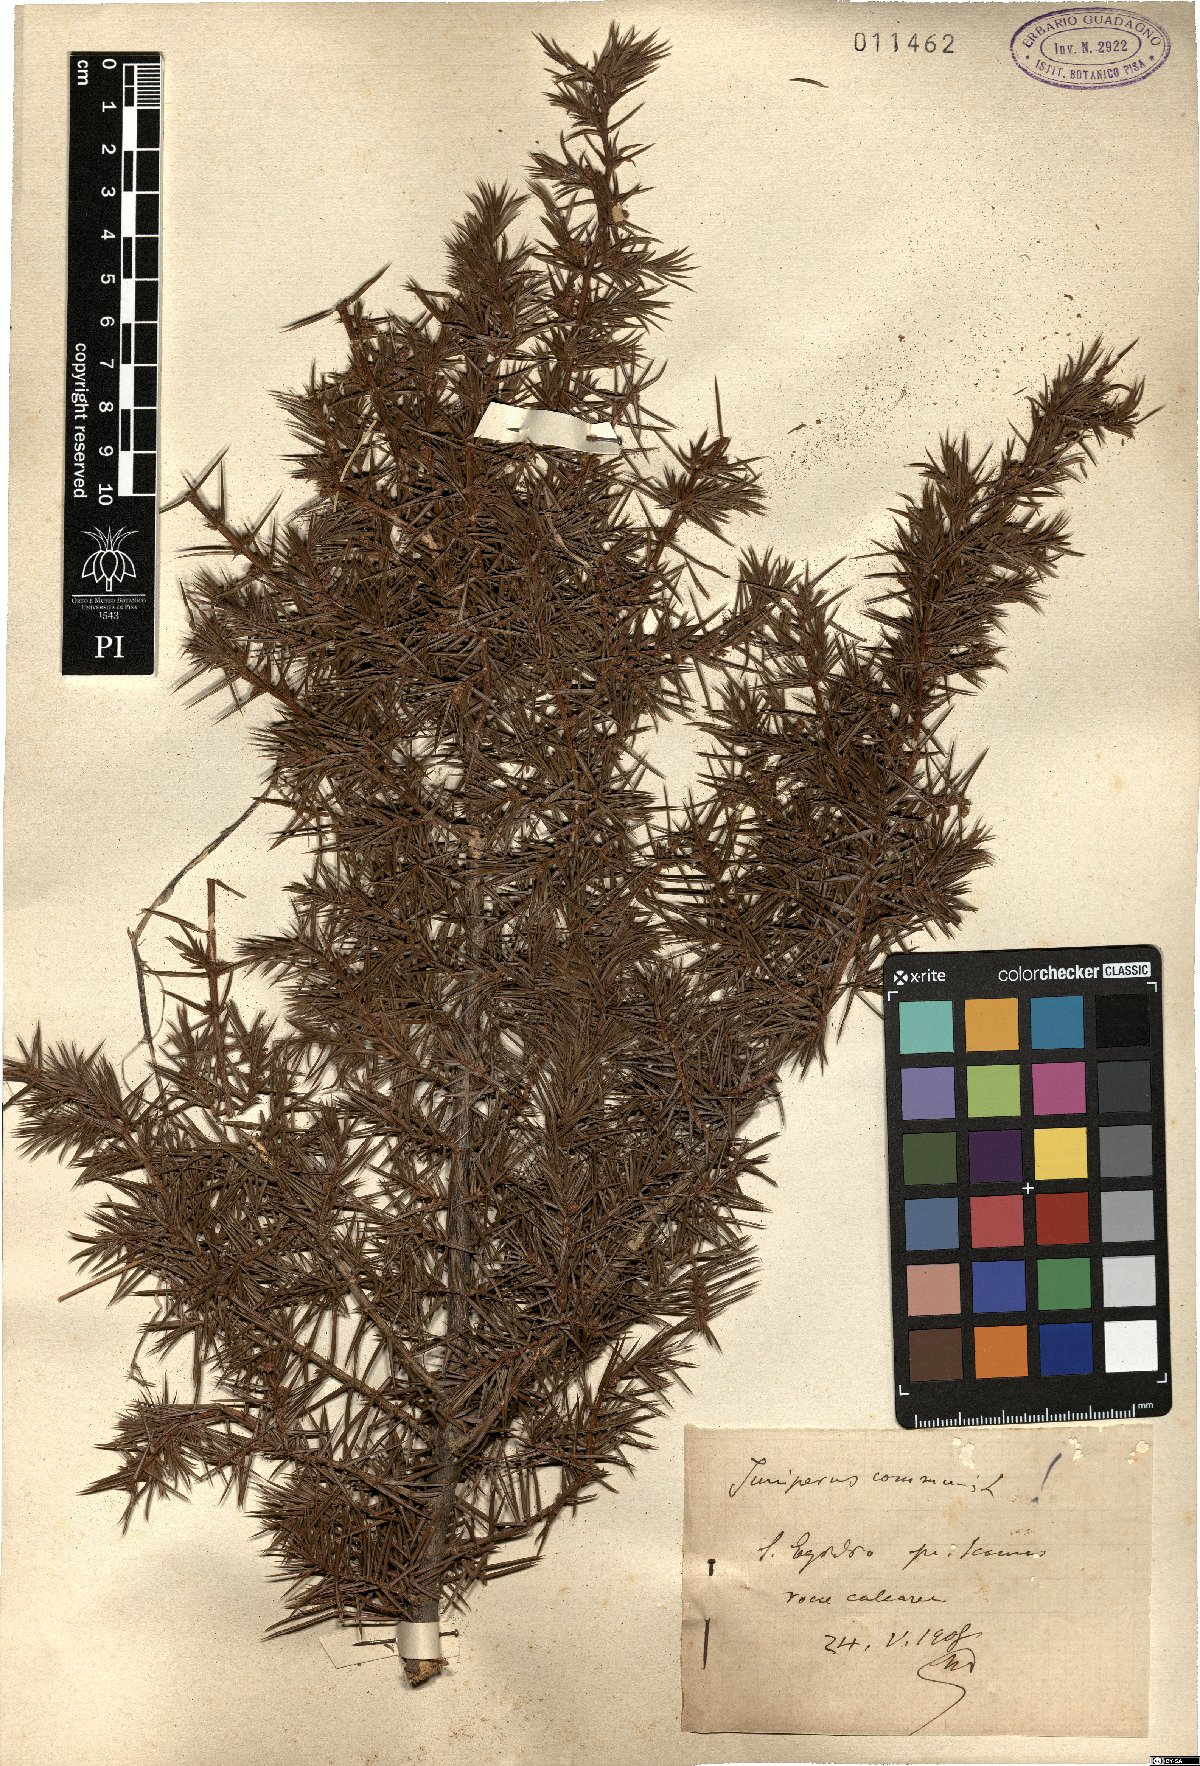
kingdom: Plantae
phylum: Tracheophyta
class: Pinopsida
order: Pinales
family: Cupressaceae
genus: Juniperus
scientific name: Juniperus communis
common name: Common juniper
